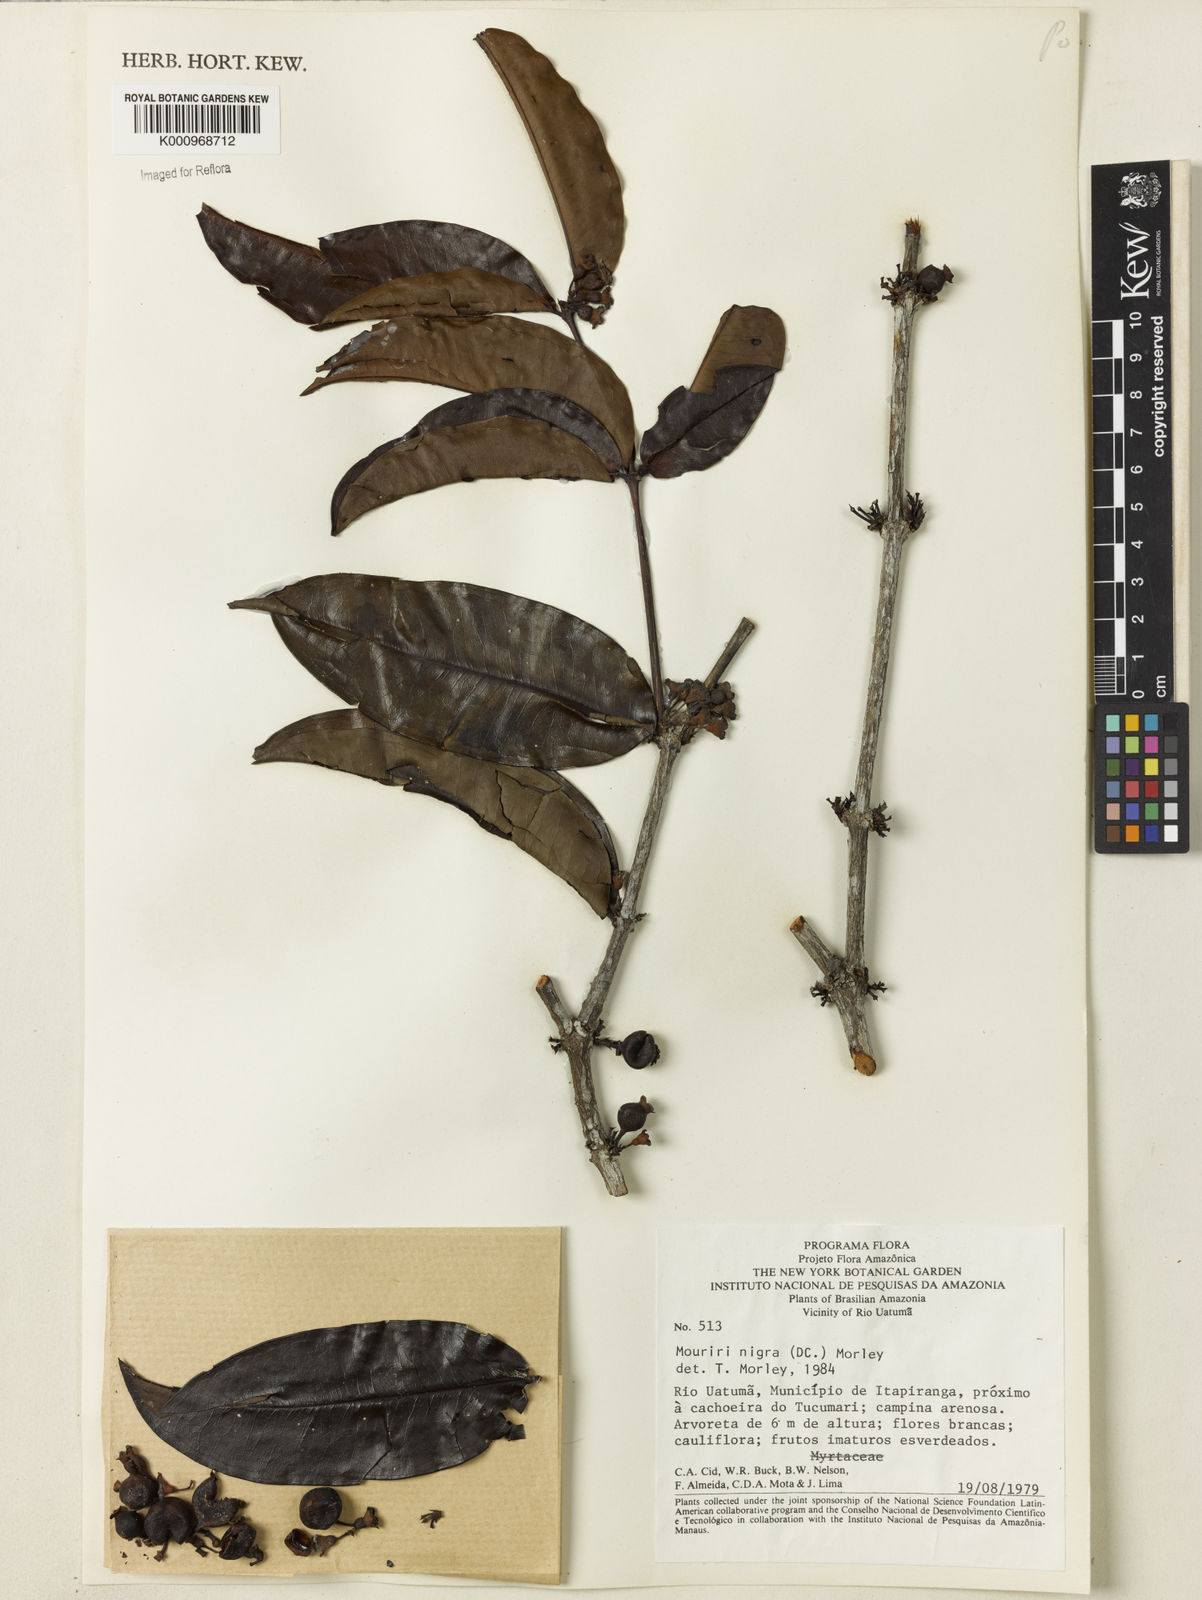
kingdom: Plantae
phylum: Tracheophyta
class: Magnoliopsida
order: Myrtales
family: Melastomataceae
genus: Mouriri
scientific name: Mouriri nigra
